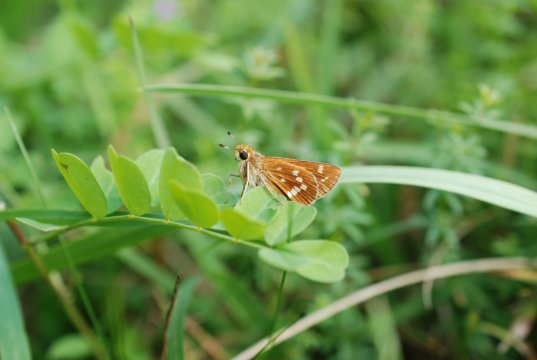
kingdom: Animalia
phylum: Arthropoda
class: Insecta
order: Lepidoptera
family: Hesperiidae
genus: Hesperia
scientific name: Hesperia leonardus
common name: Leonard's Skipper
